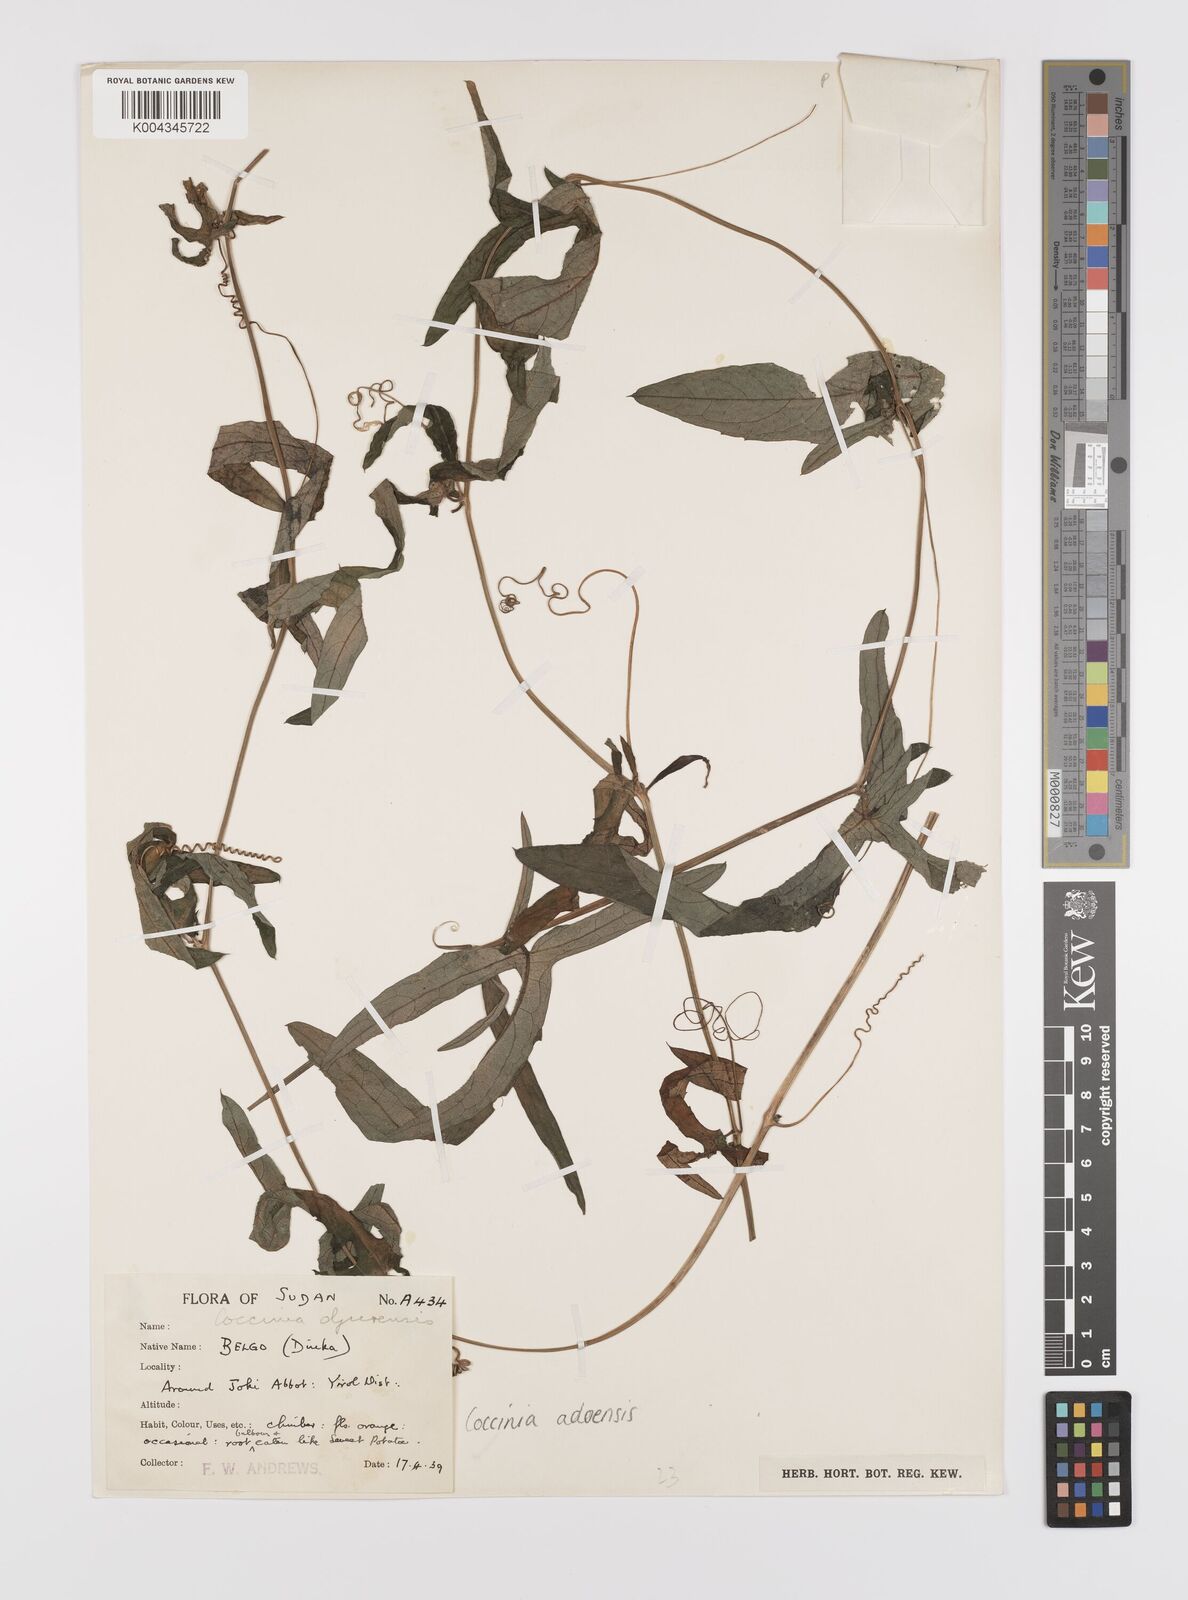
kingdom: Plantae
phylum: Tracheophyta
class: Magnoliopsida
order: Cucurbitales
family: Cucurbitaceae
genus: Coccinia
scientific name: Coccinia adoensis
